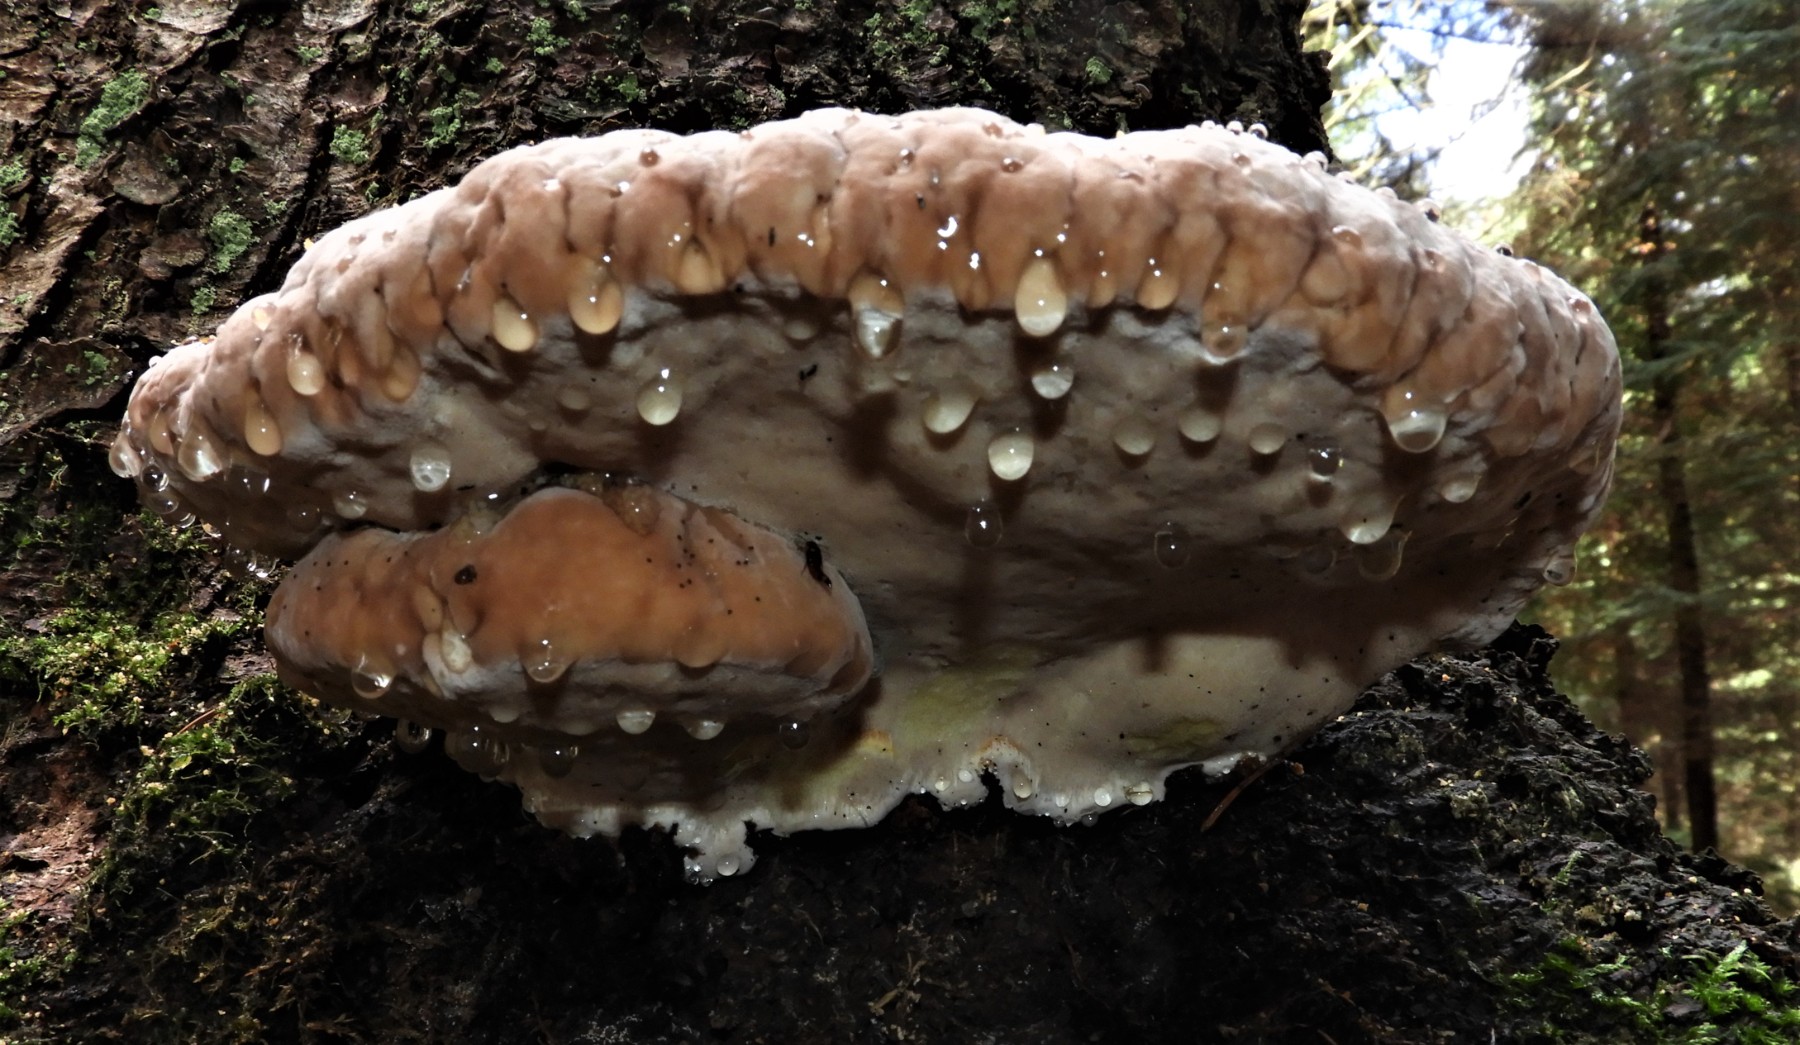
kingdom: Fungi
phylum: Basidiomycota
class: Agaricomycetes
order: Polyporales
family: Fomitopsidaceae
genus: Fomitopsis
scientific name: Fomitopsis pinicola
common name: randbæltet hovporesvamp
